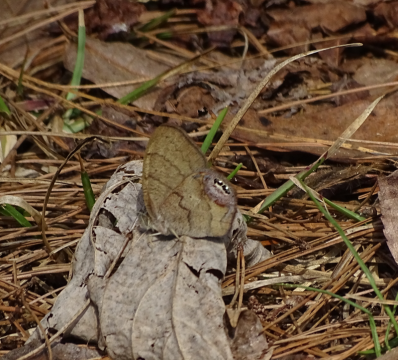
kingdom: Animalia
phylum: Arthropoda
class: Insecta
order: Lepidoptera
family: Nymphalidae
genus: Euptychia
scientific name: Euptychia cornelius
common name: Gemmed Satyr
